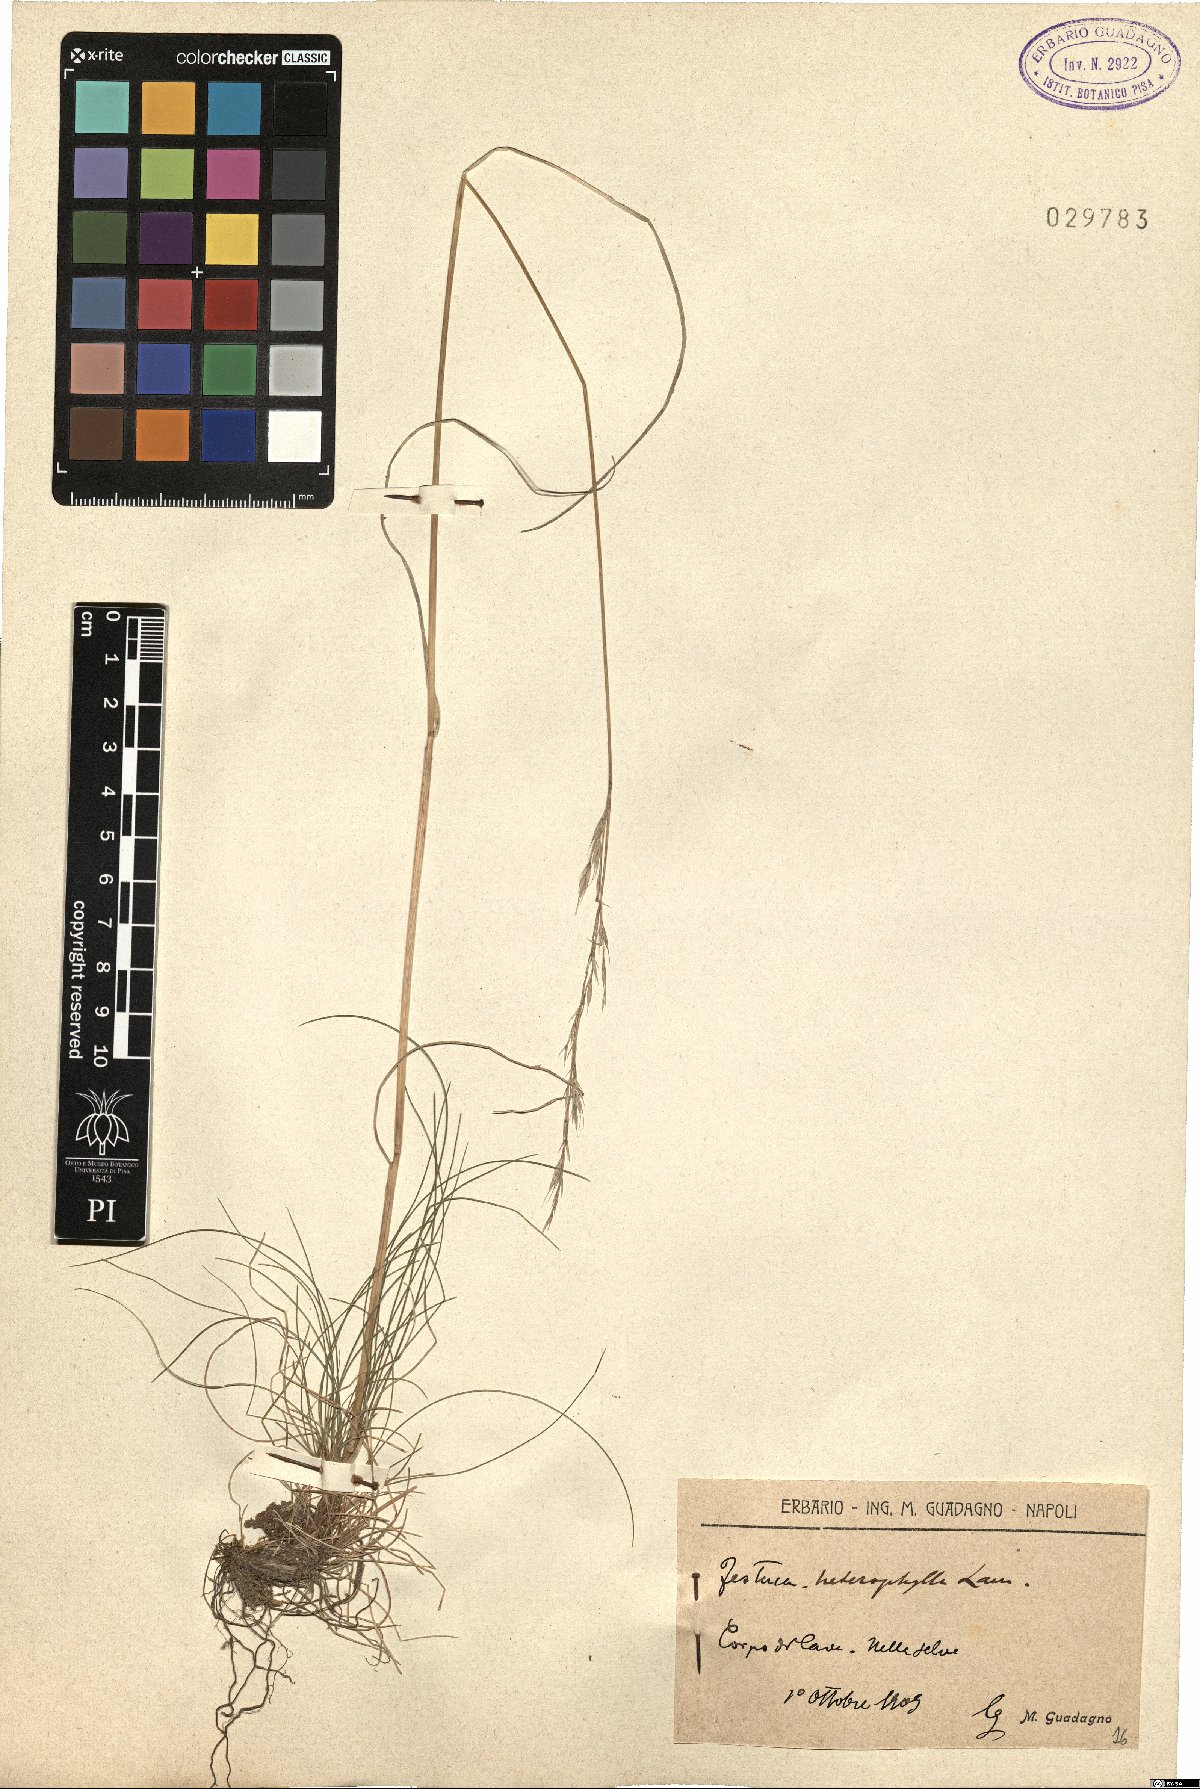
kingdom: Plantae
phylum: Tracheophyta
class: Liliopsida
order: Poales
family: Poaceae
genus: Festuca
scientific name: Festuca heterophylla
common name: Various-leaved fescue
